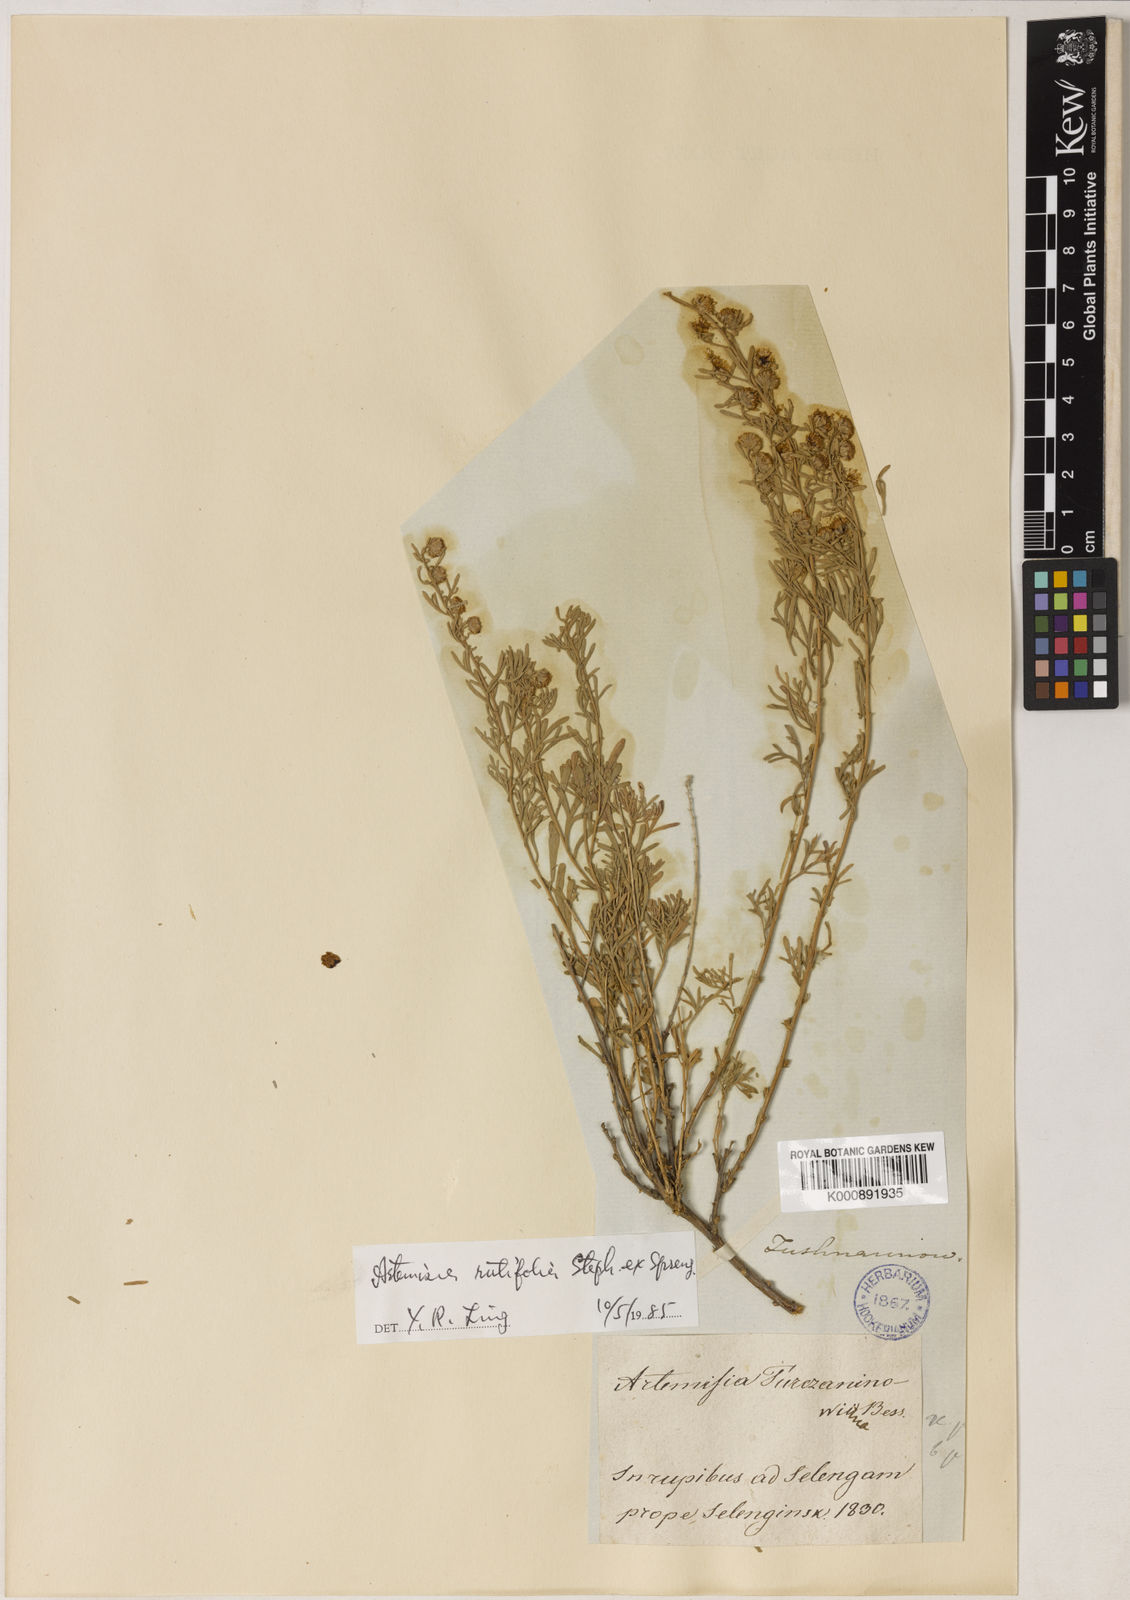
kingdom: Plantae
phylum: Tracheophyta
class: Magnoliopsida
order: Asterales
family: Asteraceae
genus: Artemisia
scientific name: Artemisia rutifolia
